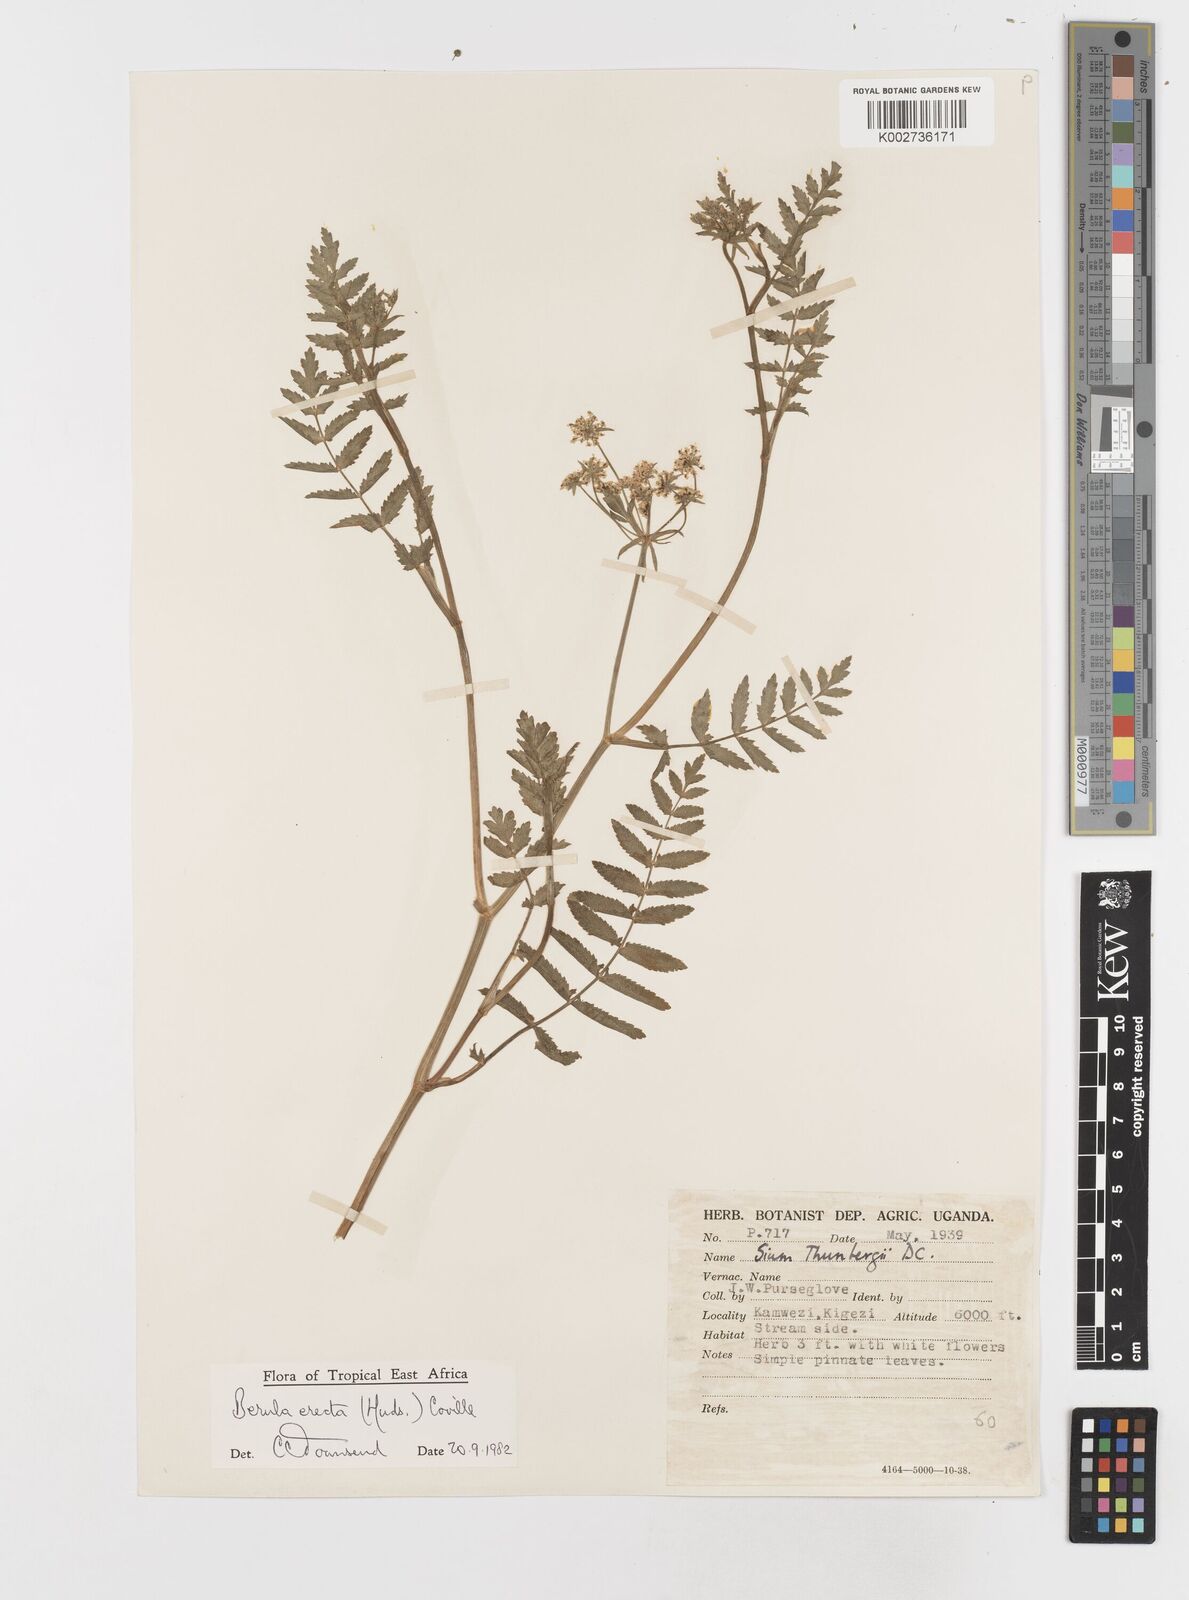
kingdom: Plantae
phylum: Tracheophyta
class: Magnoliopsida
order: Apiales
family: Apiaceae
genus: Berula
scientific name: Berula erecta
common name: Lesser water-parsnip
